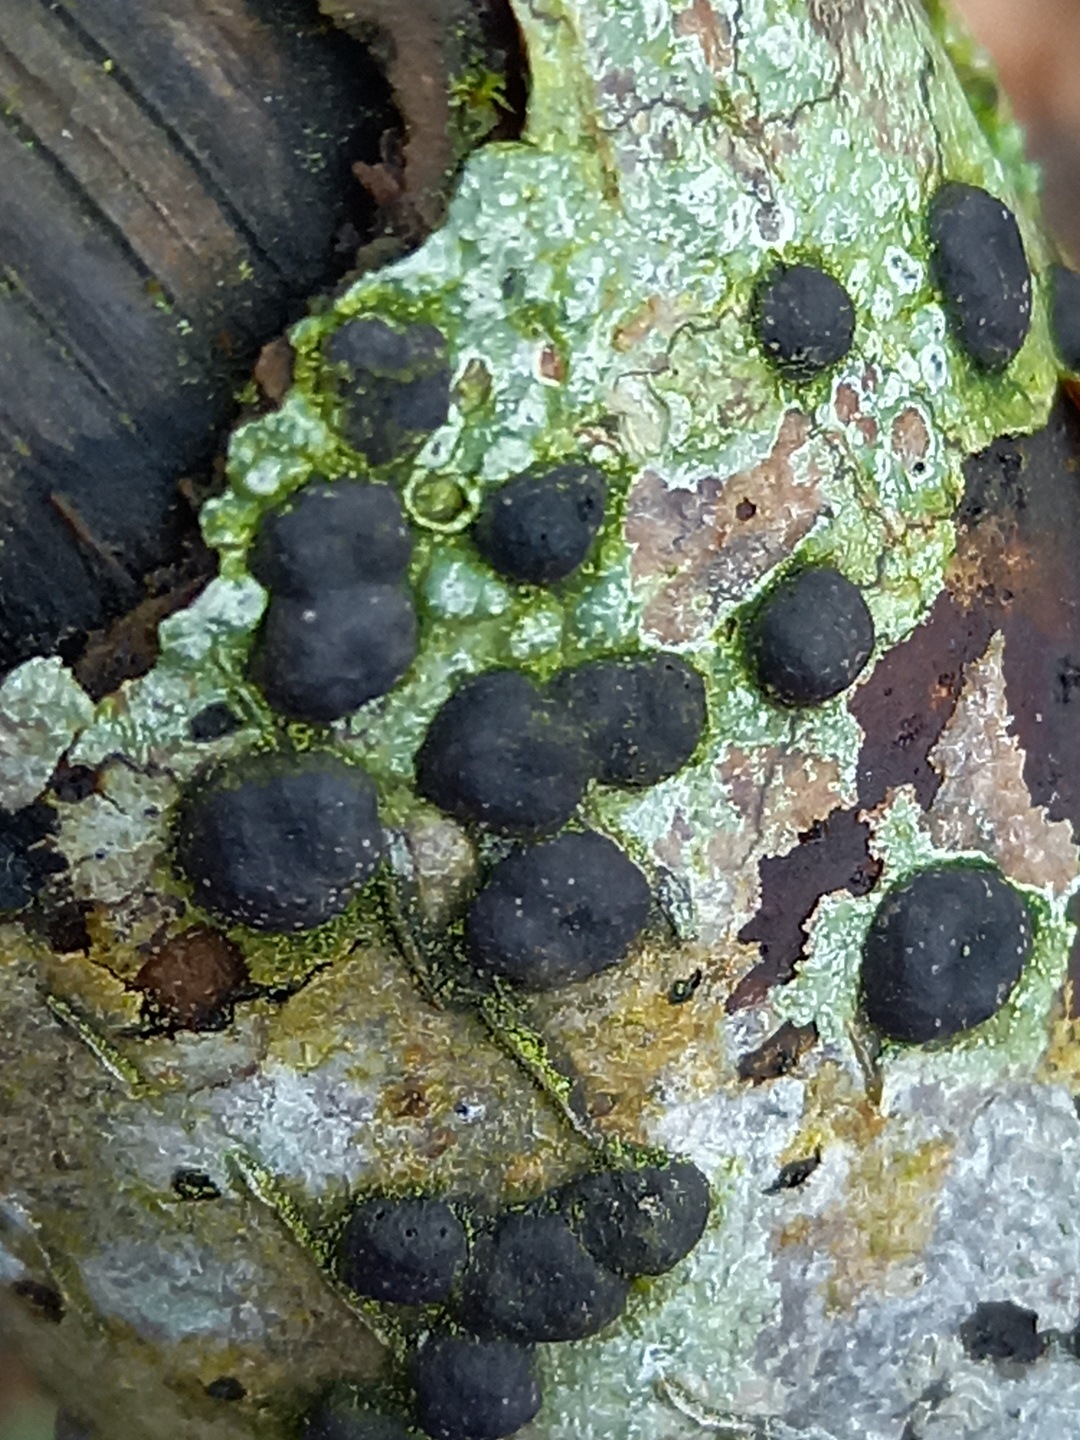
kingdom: Fungi
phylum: Ascomycota
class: Sordariomycetes
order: Xylariales
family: Hypoxylaceae
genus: Hypoxylon
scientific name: Hypoxylon
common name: kulbær
